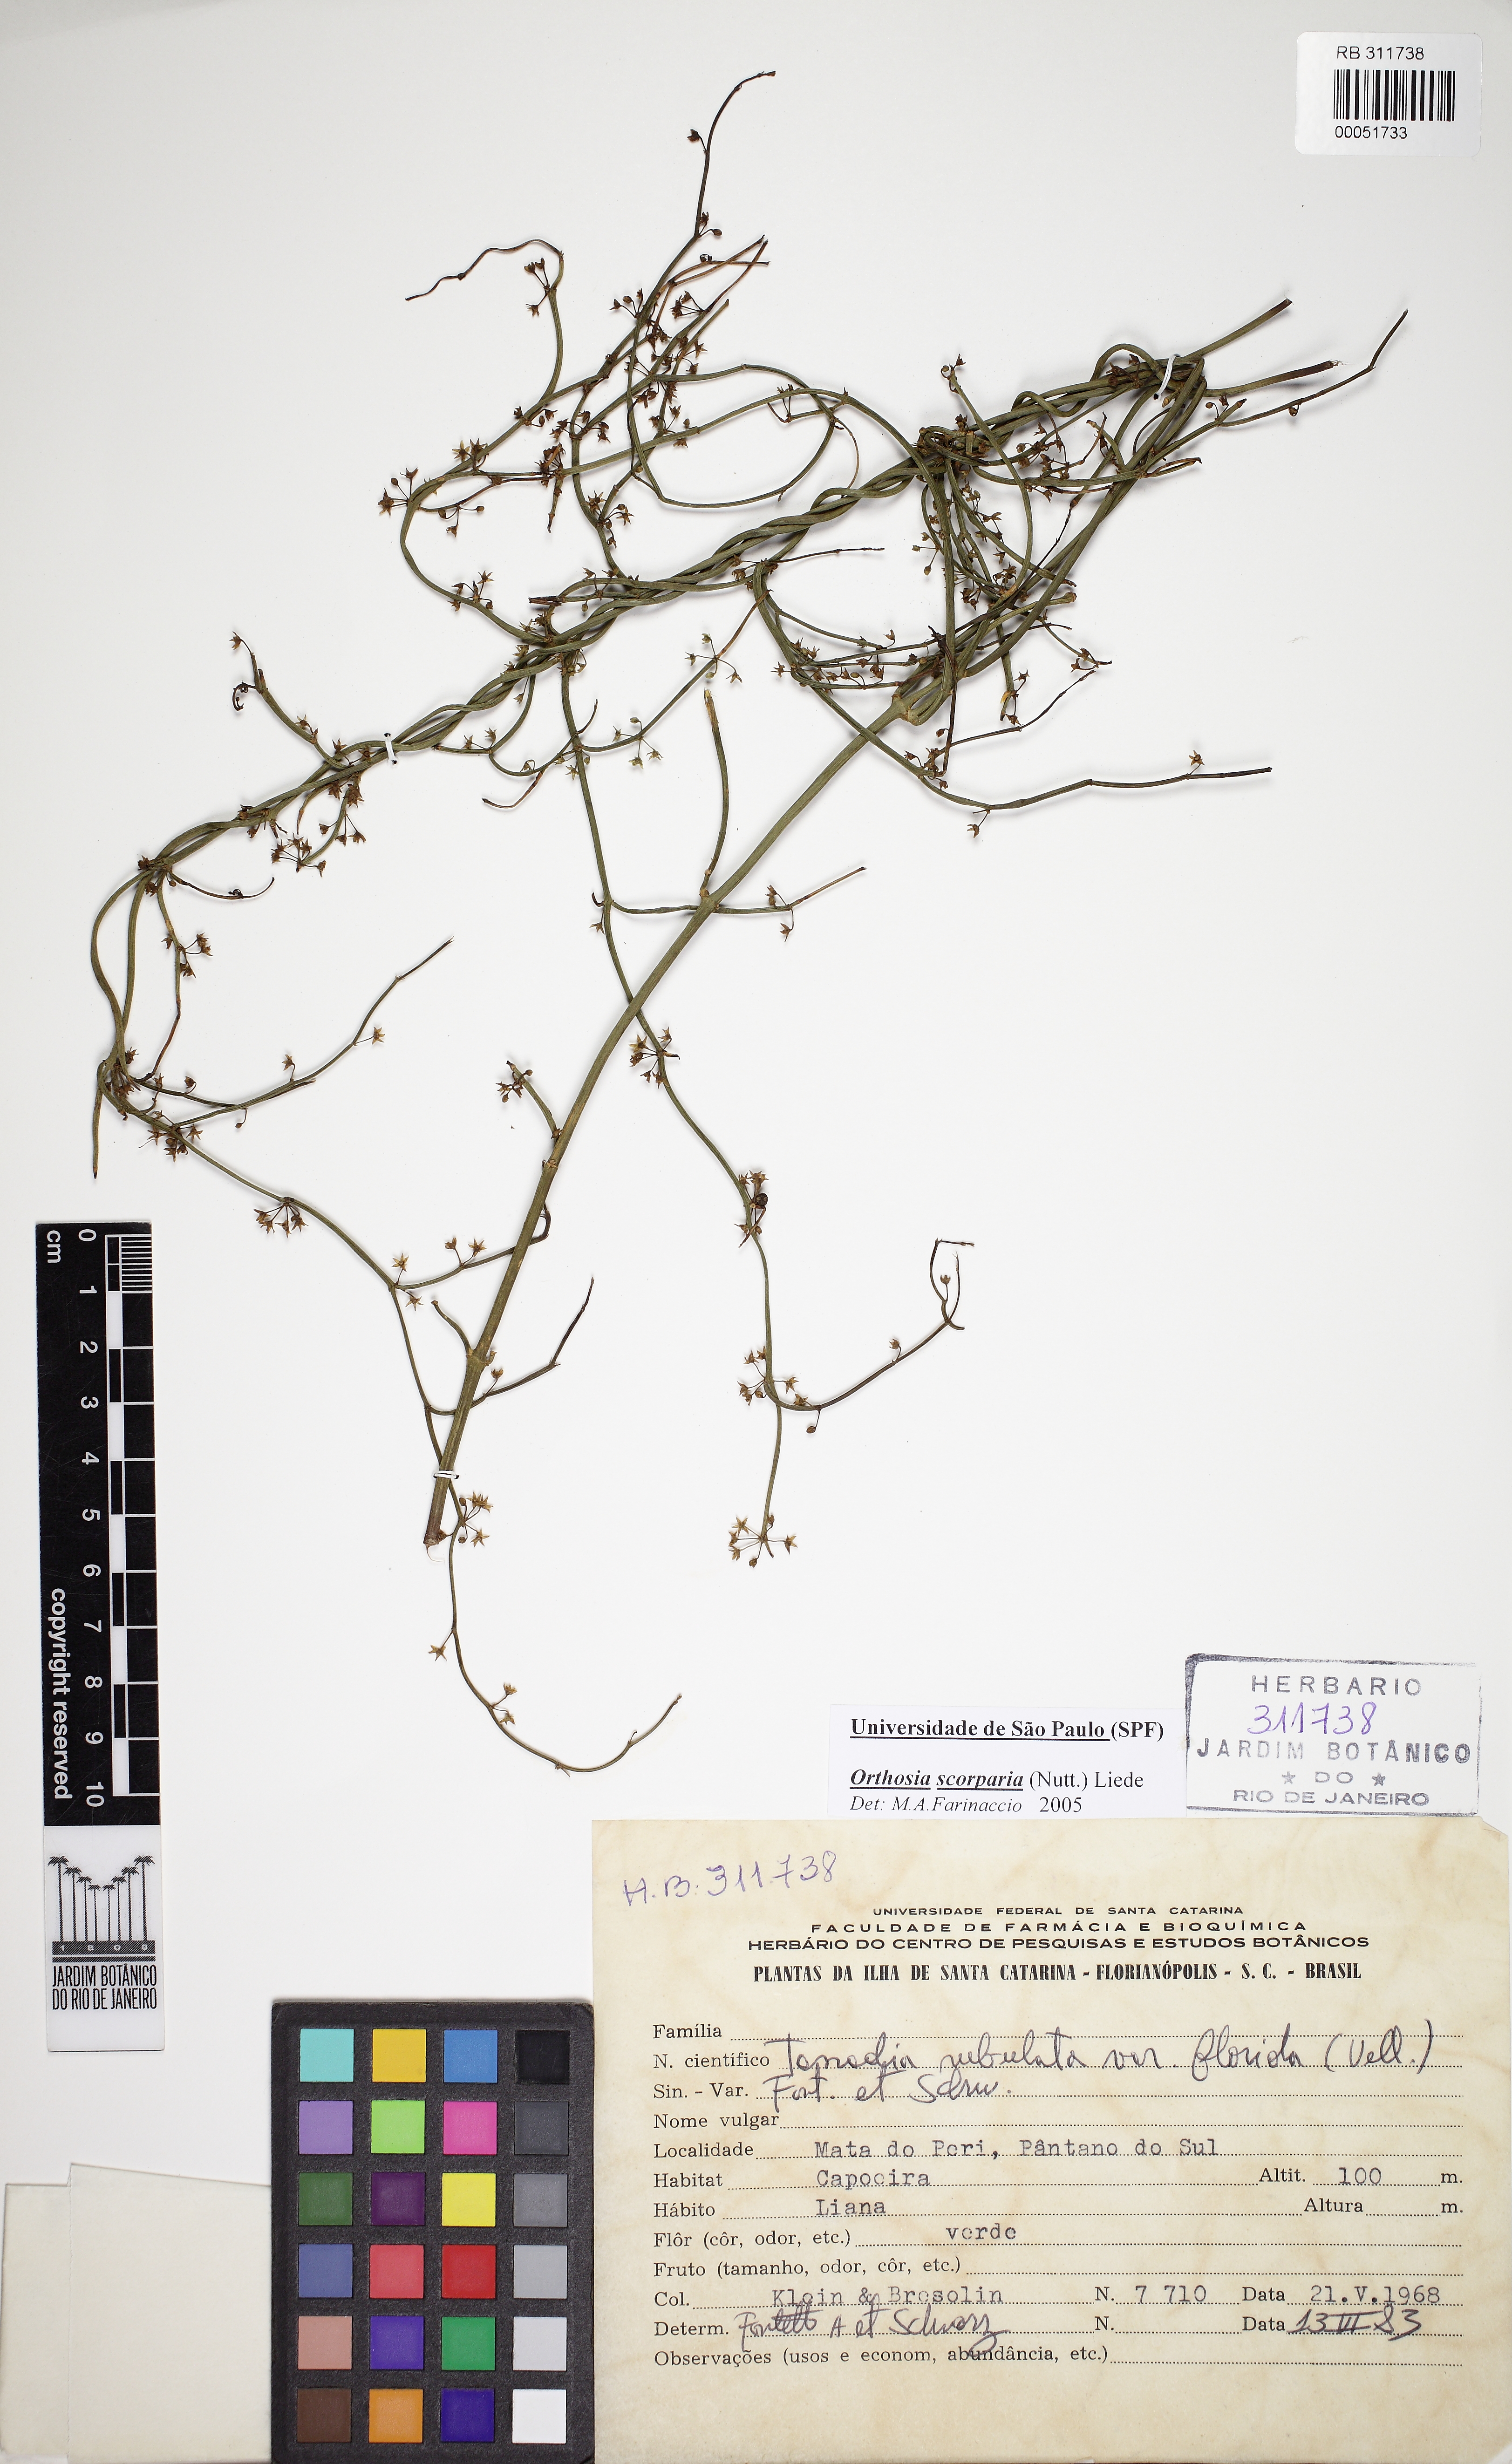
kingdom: Plantae
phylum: Tracheophyta
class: Magnoliopsida
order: Gentianales
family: Apocynaceae
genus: Orthosia
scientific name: Orthosia scoparia
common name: Leafless swallow-wort
